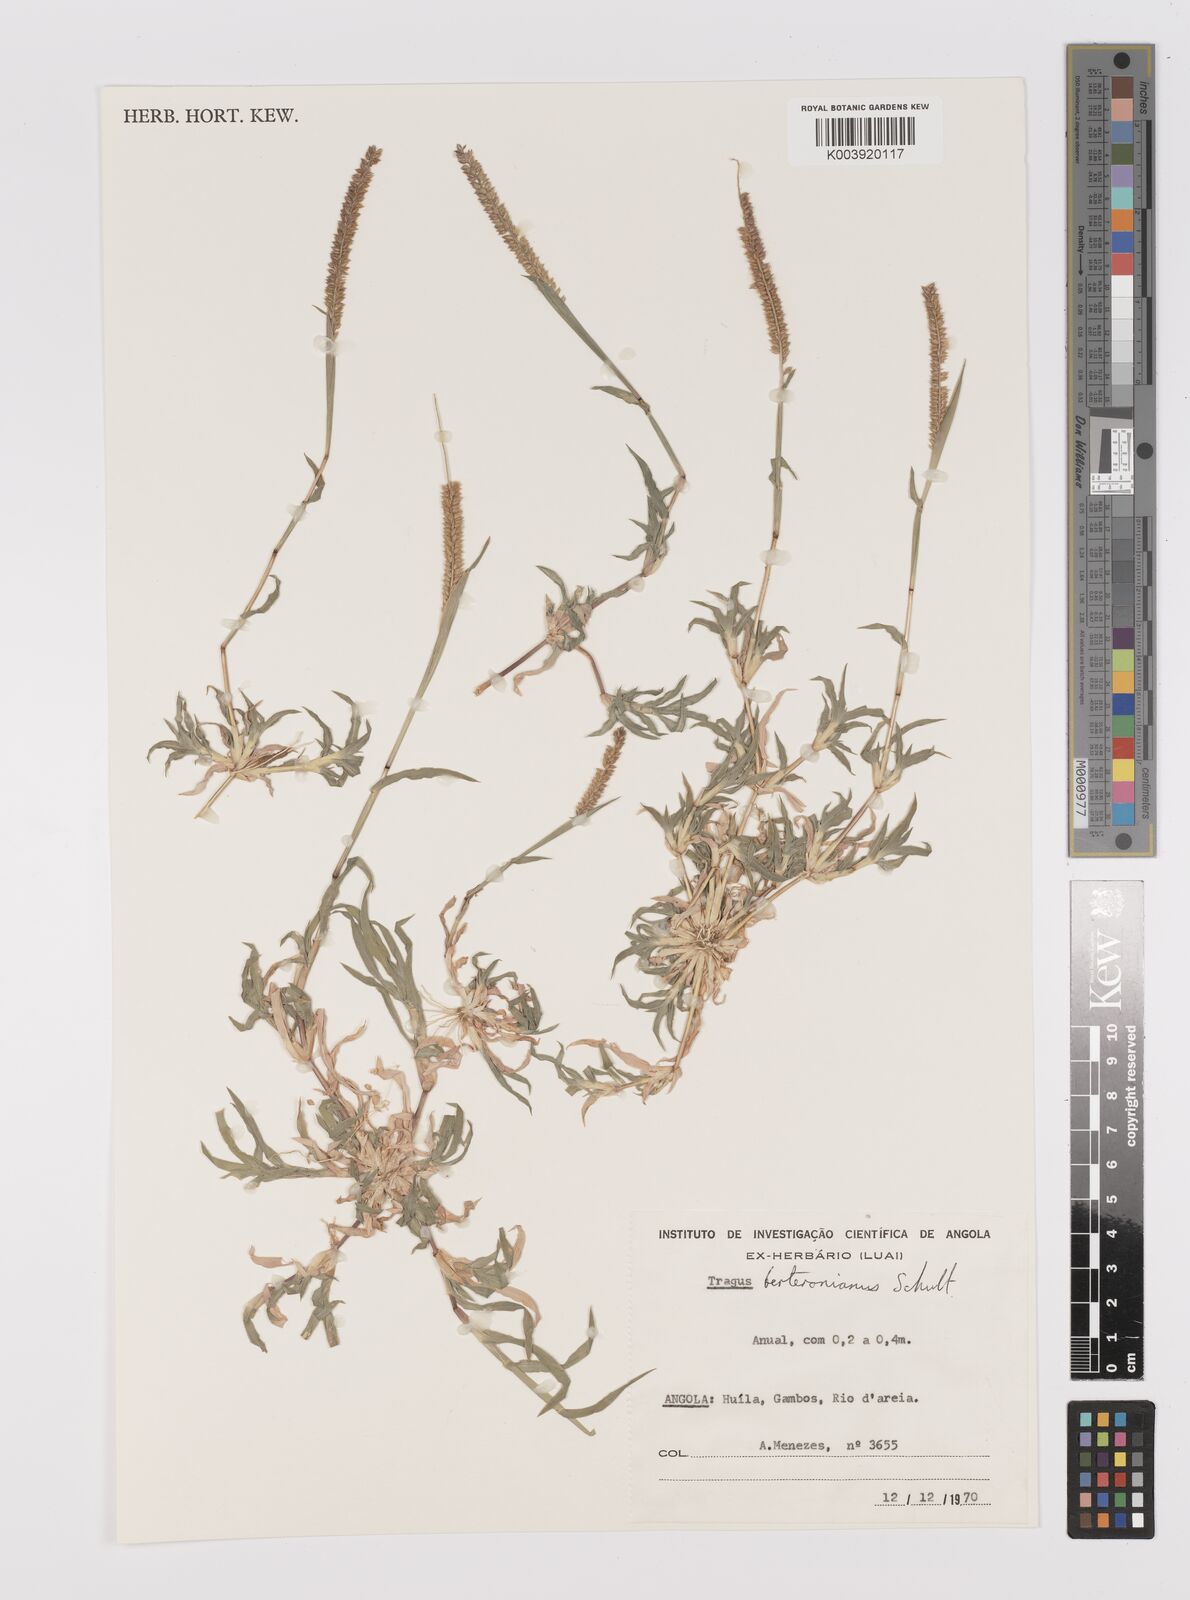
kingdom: Plantae
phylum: Tracheophyta
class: Liliopsida
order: Poales
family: Poaceae
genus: Tragus
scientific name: Tragus berteronianus
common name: African bur-grass
